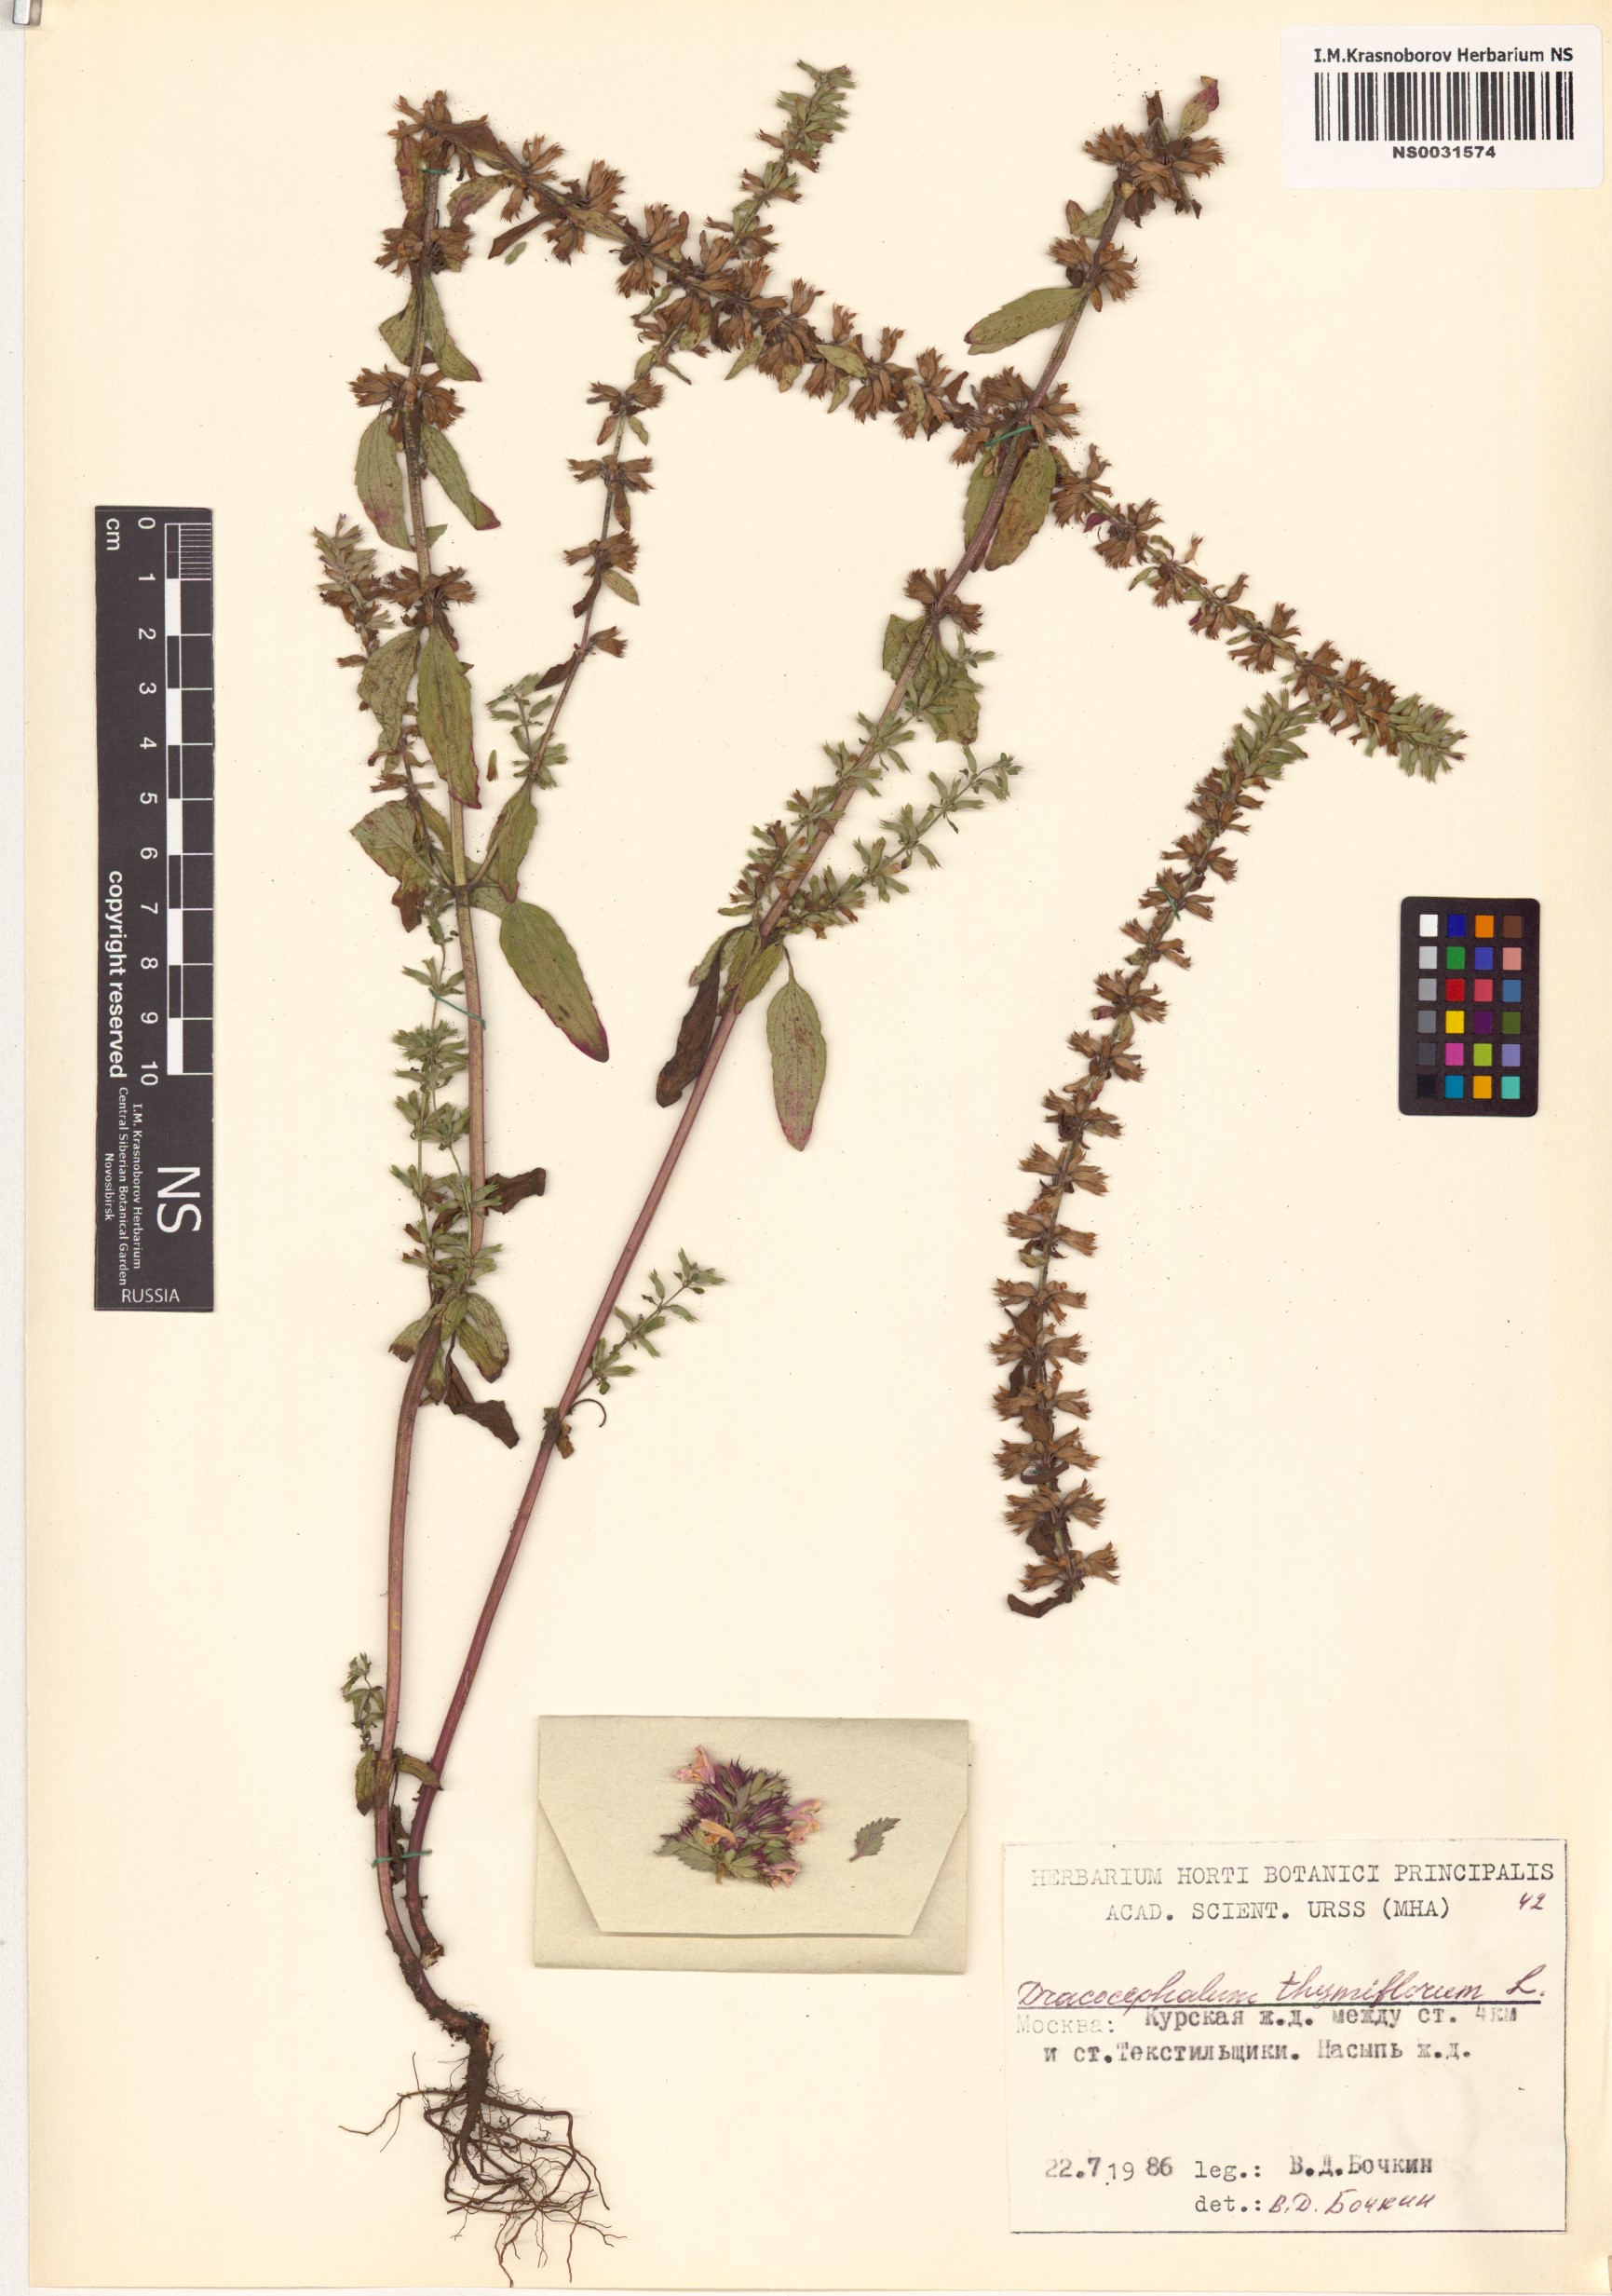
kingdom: Plantae
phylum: Tracheophyta
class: Magnoliopsida
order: Lamiales
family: Lamiaceae
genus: Dracocephalum
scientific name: Dracocephalum thymiflorum
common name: Thymeleaf dragonhead
